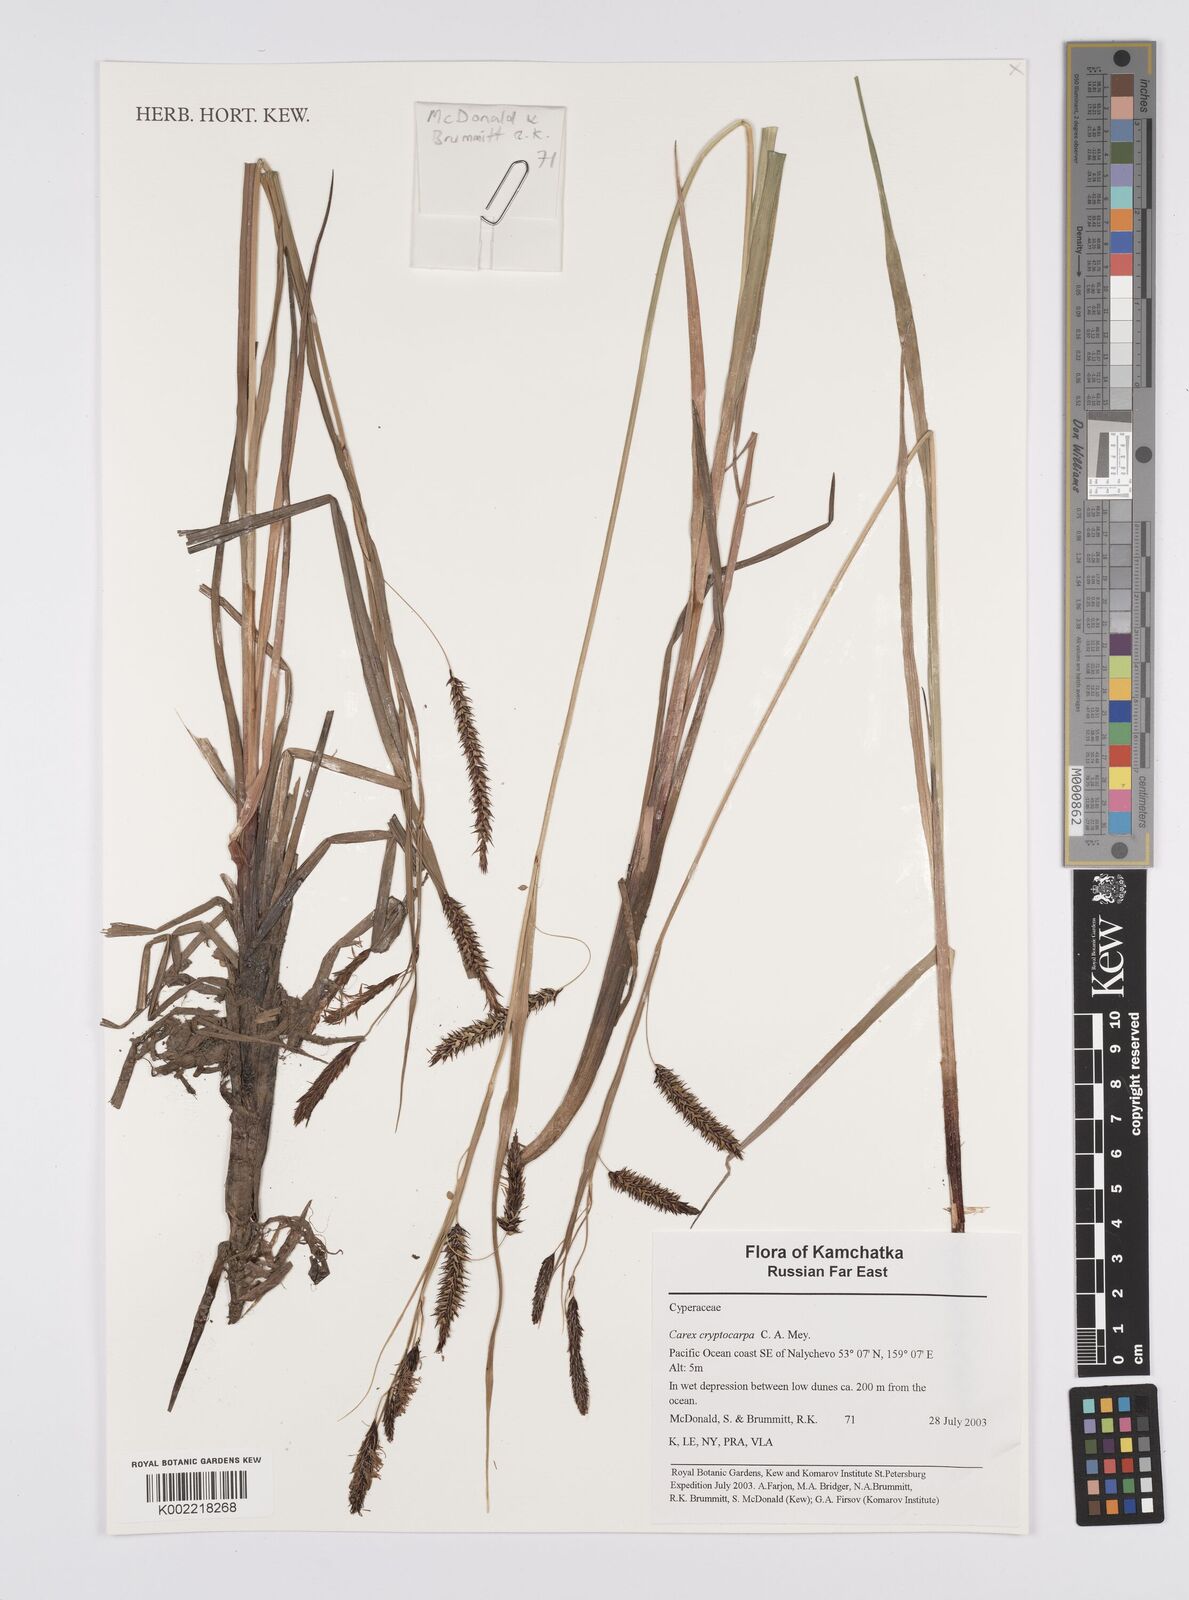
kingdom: Plantae
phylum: Tracheophyta
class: Liliopsida
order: Poales
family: Cyperaceae
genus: Carex
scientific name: Carex lyngbyei
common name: Lyngbye's sedge
